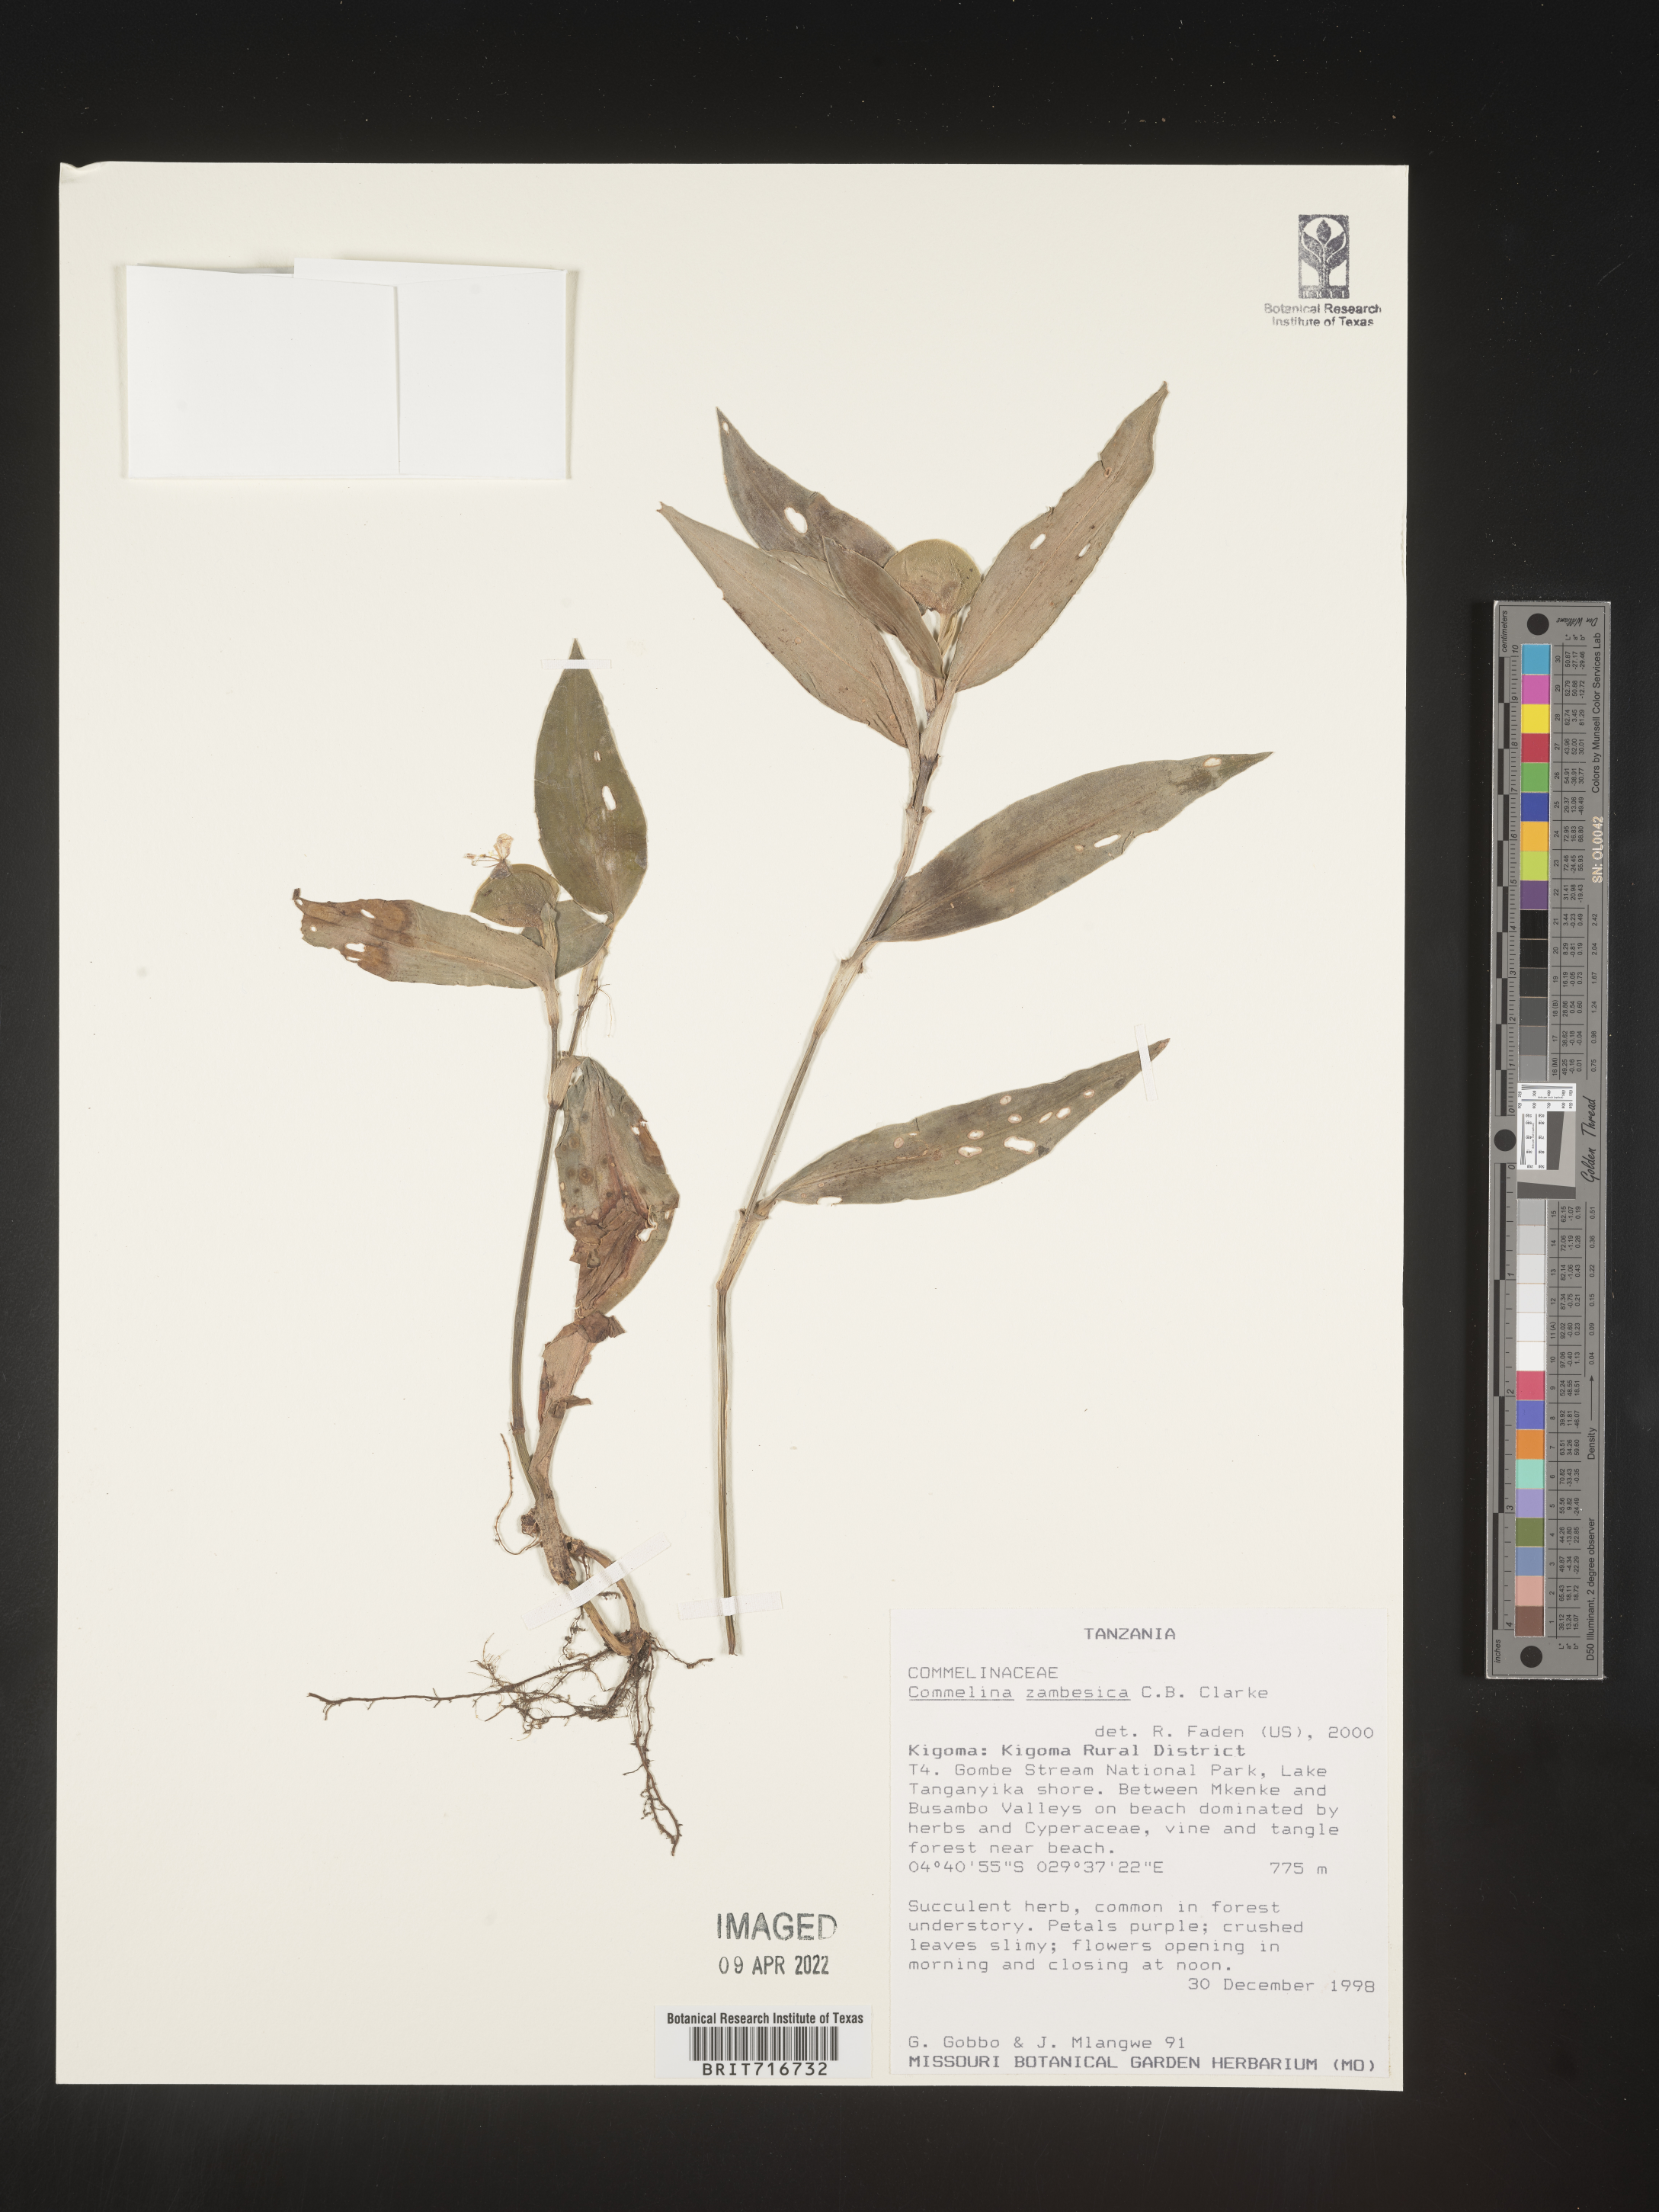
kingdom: Plantae
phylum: Tracheophyta
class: Liliopsida
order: Commelinales
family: Commelinaceae
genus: Commelina
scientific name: Commelina
